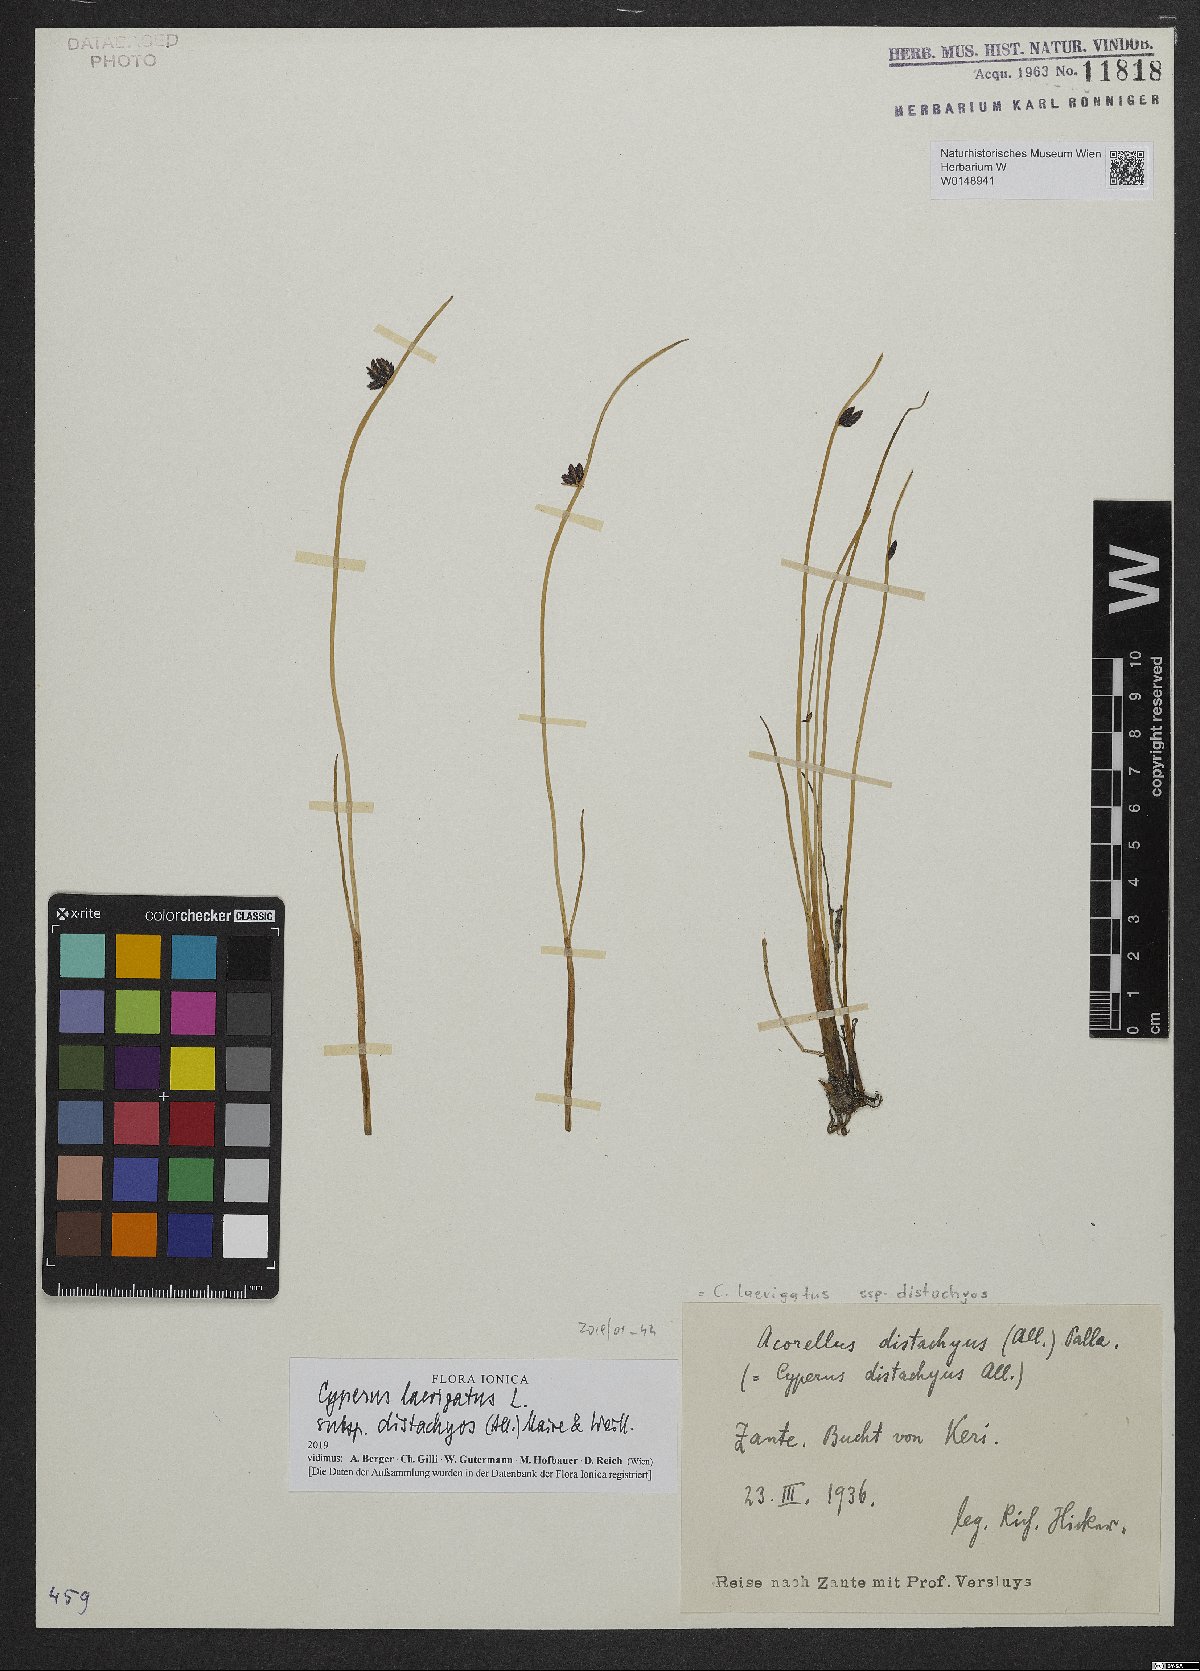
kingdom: Plantae
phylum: Tracheophyta
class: Liliopsida
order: Poales
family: Cyperaceae
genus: Cyperus
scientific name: Cyperus laevigatus
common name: Smooth flat sedge
